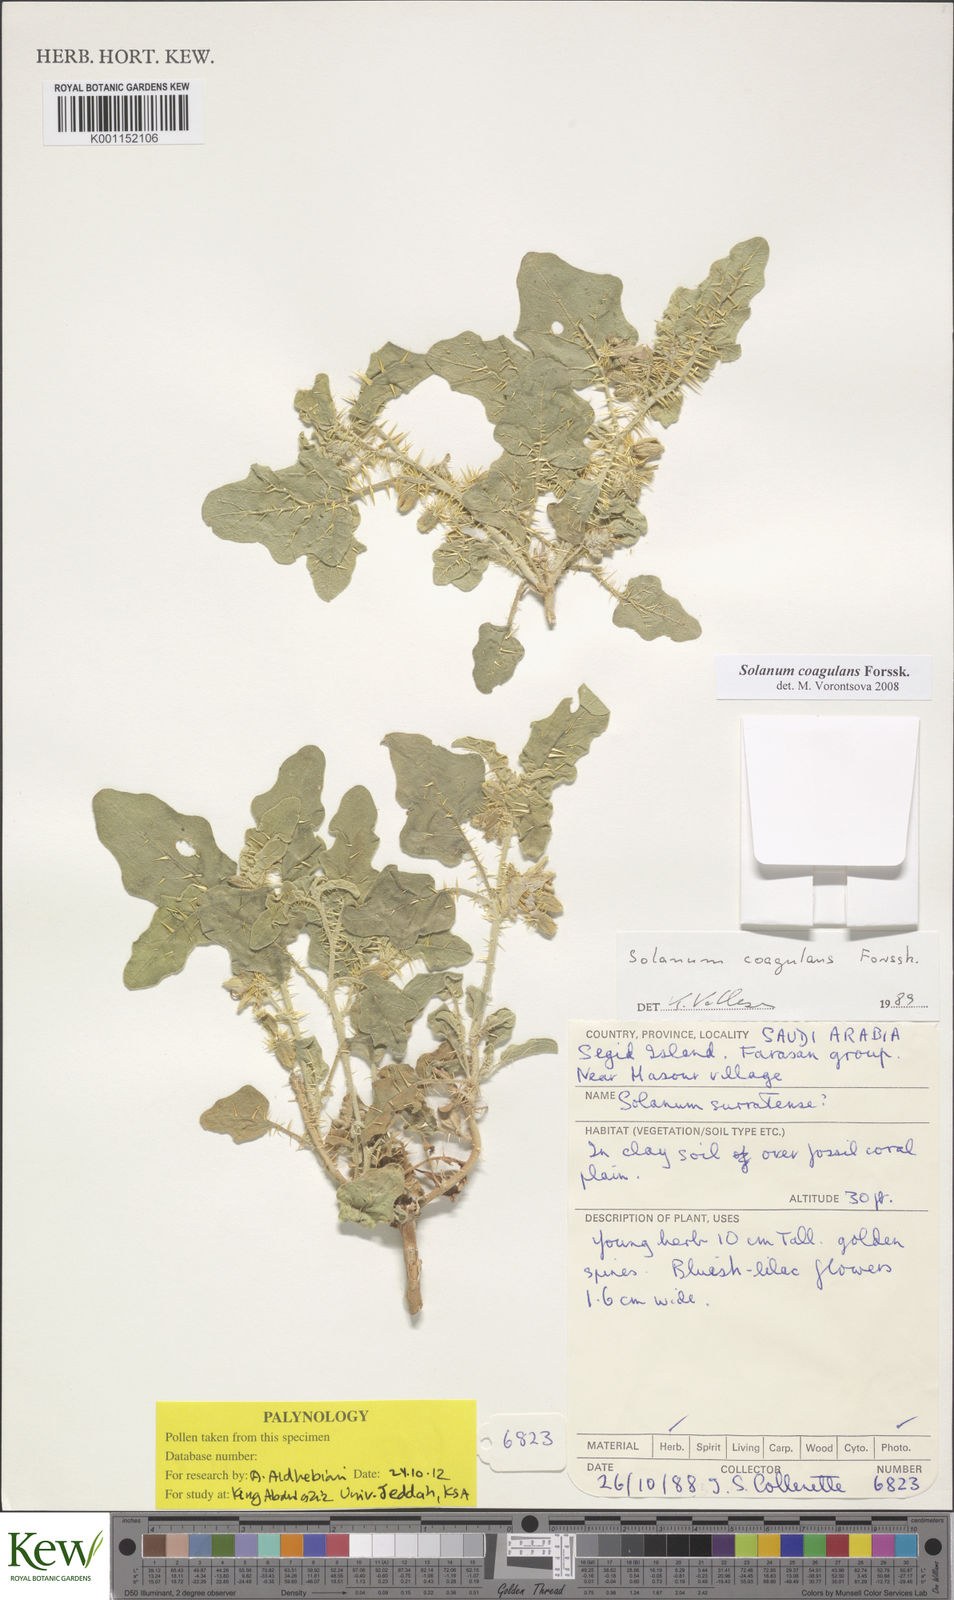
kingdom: Plantae
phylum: Tracheophyta
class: Magnoliopsida
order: Solanales
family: Solanaceae
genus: Solanum
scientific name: Solanum coagulans
